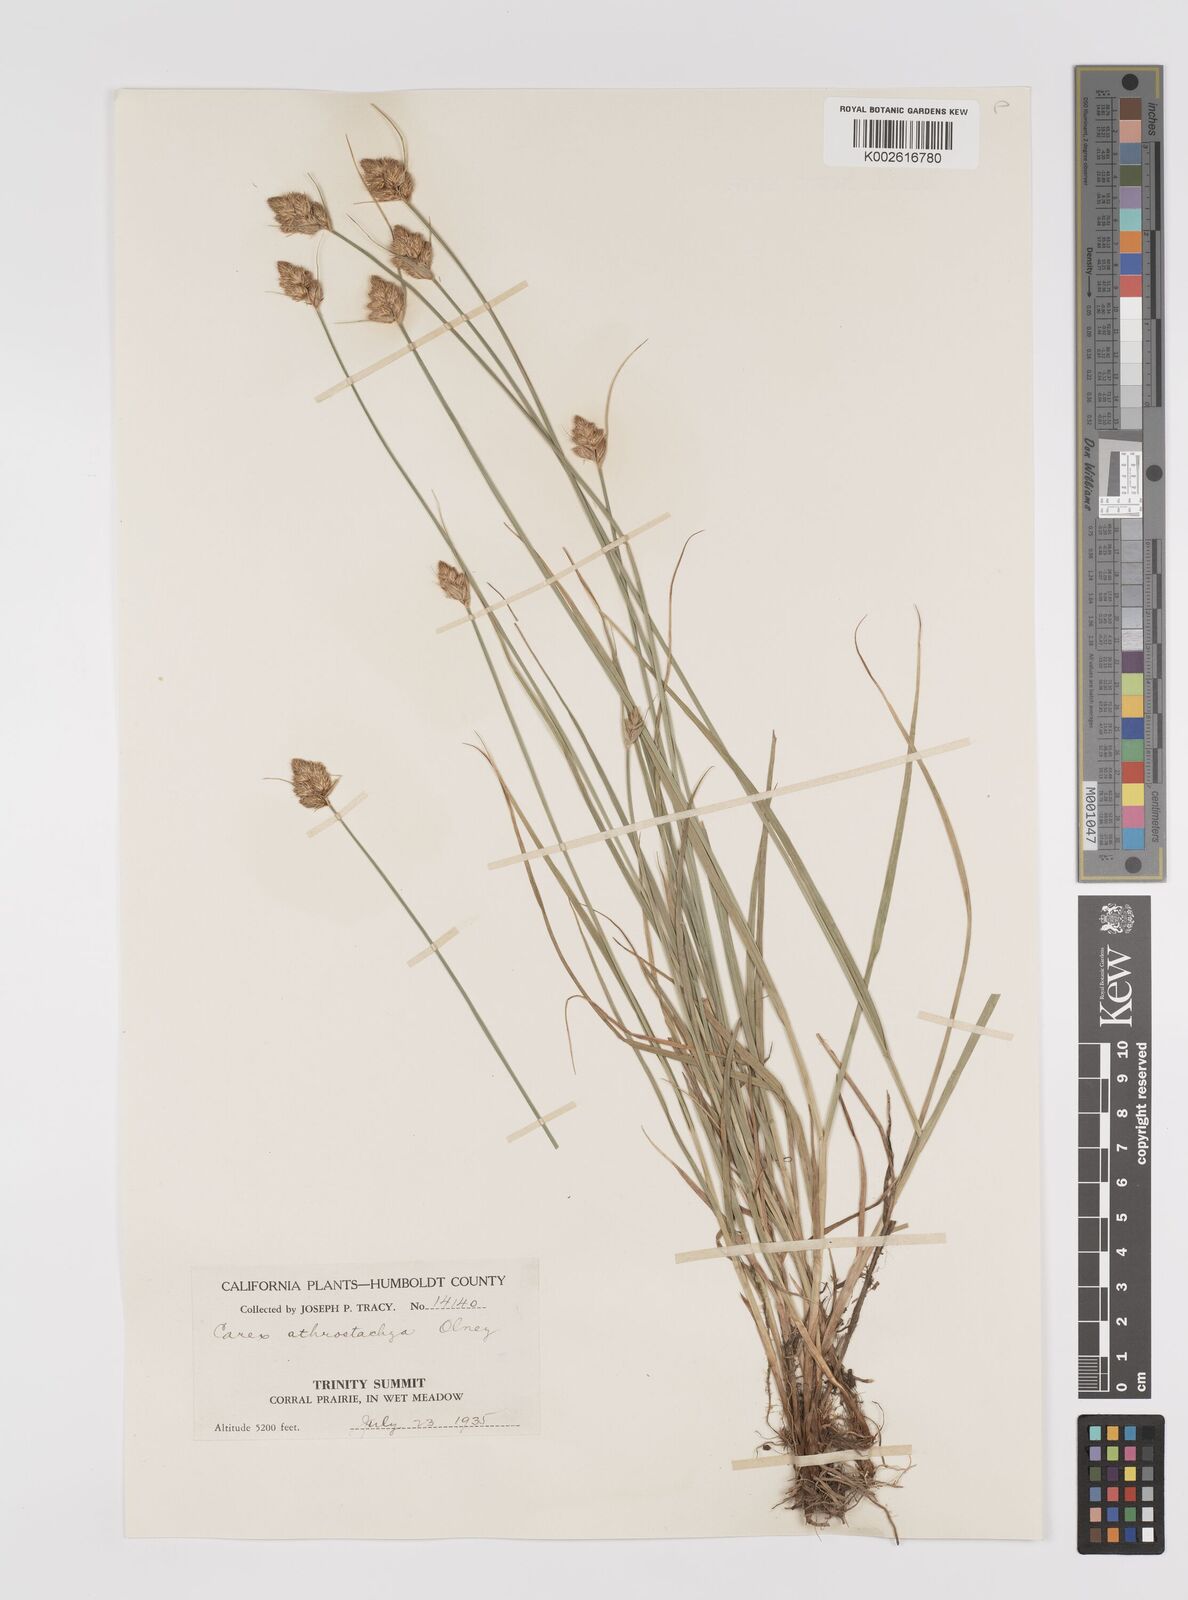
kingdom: Plantae
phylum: Tracheophyta
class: Liliopsida
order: Poales
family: Cyperaceae
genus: Carex
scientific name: Carex athrostachya
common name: Slenderbeak sedge
